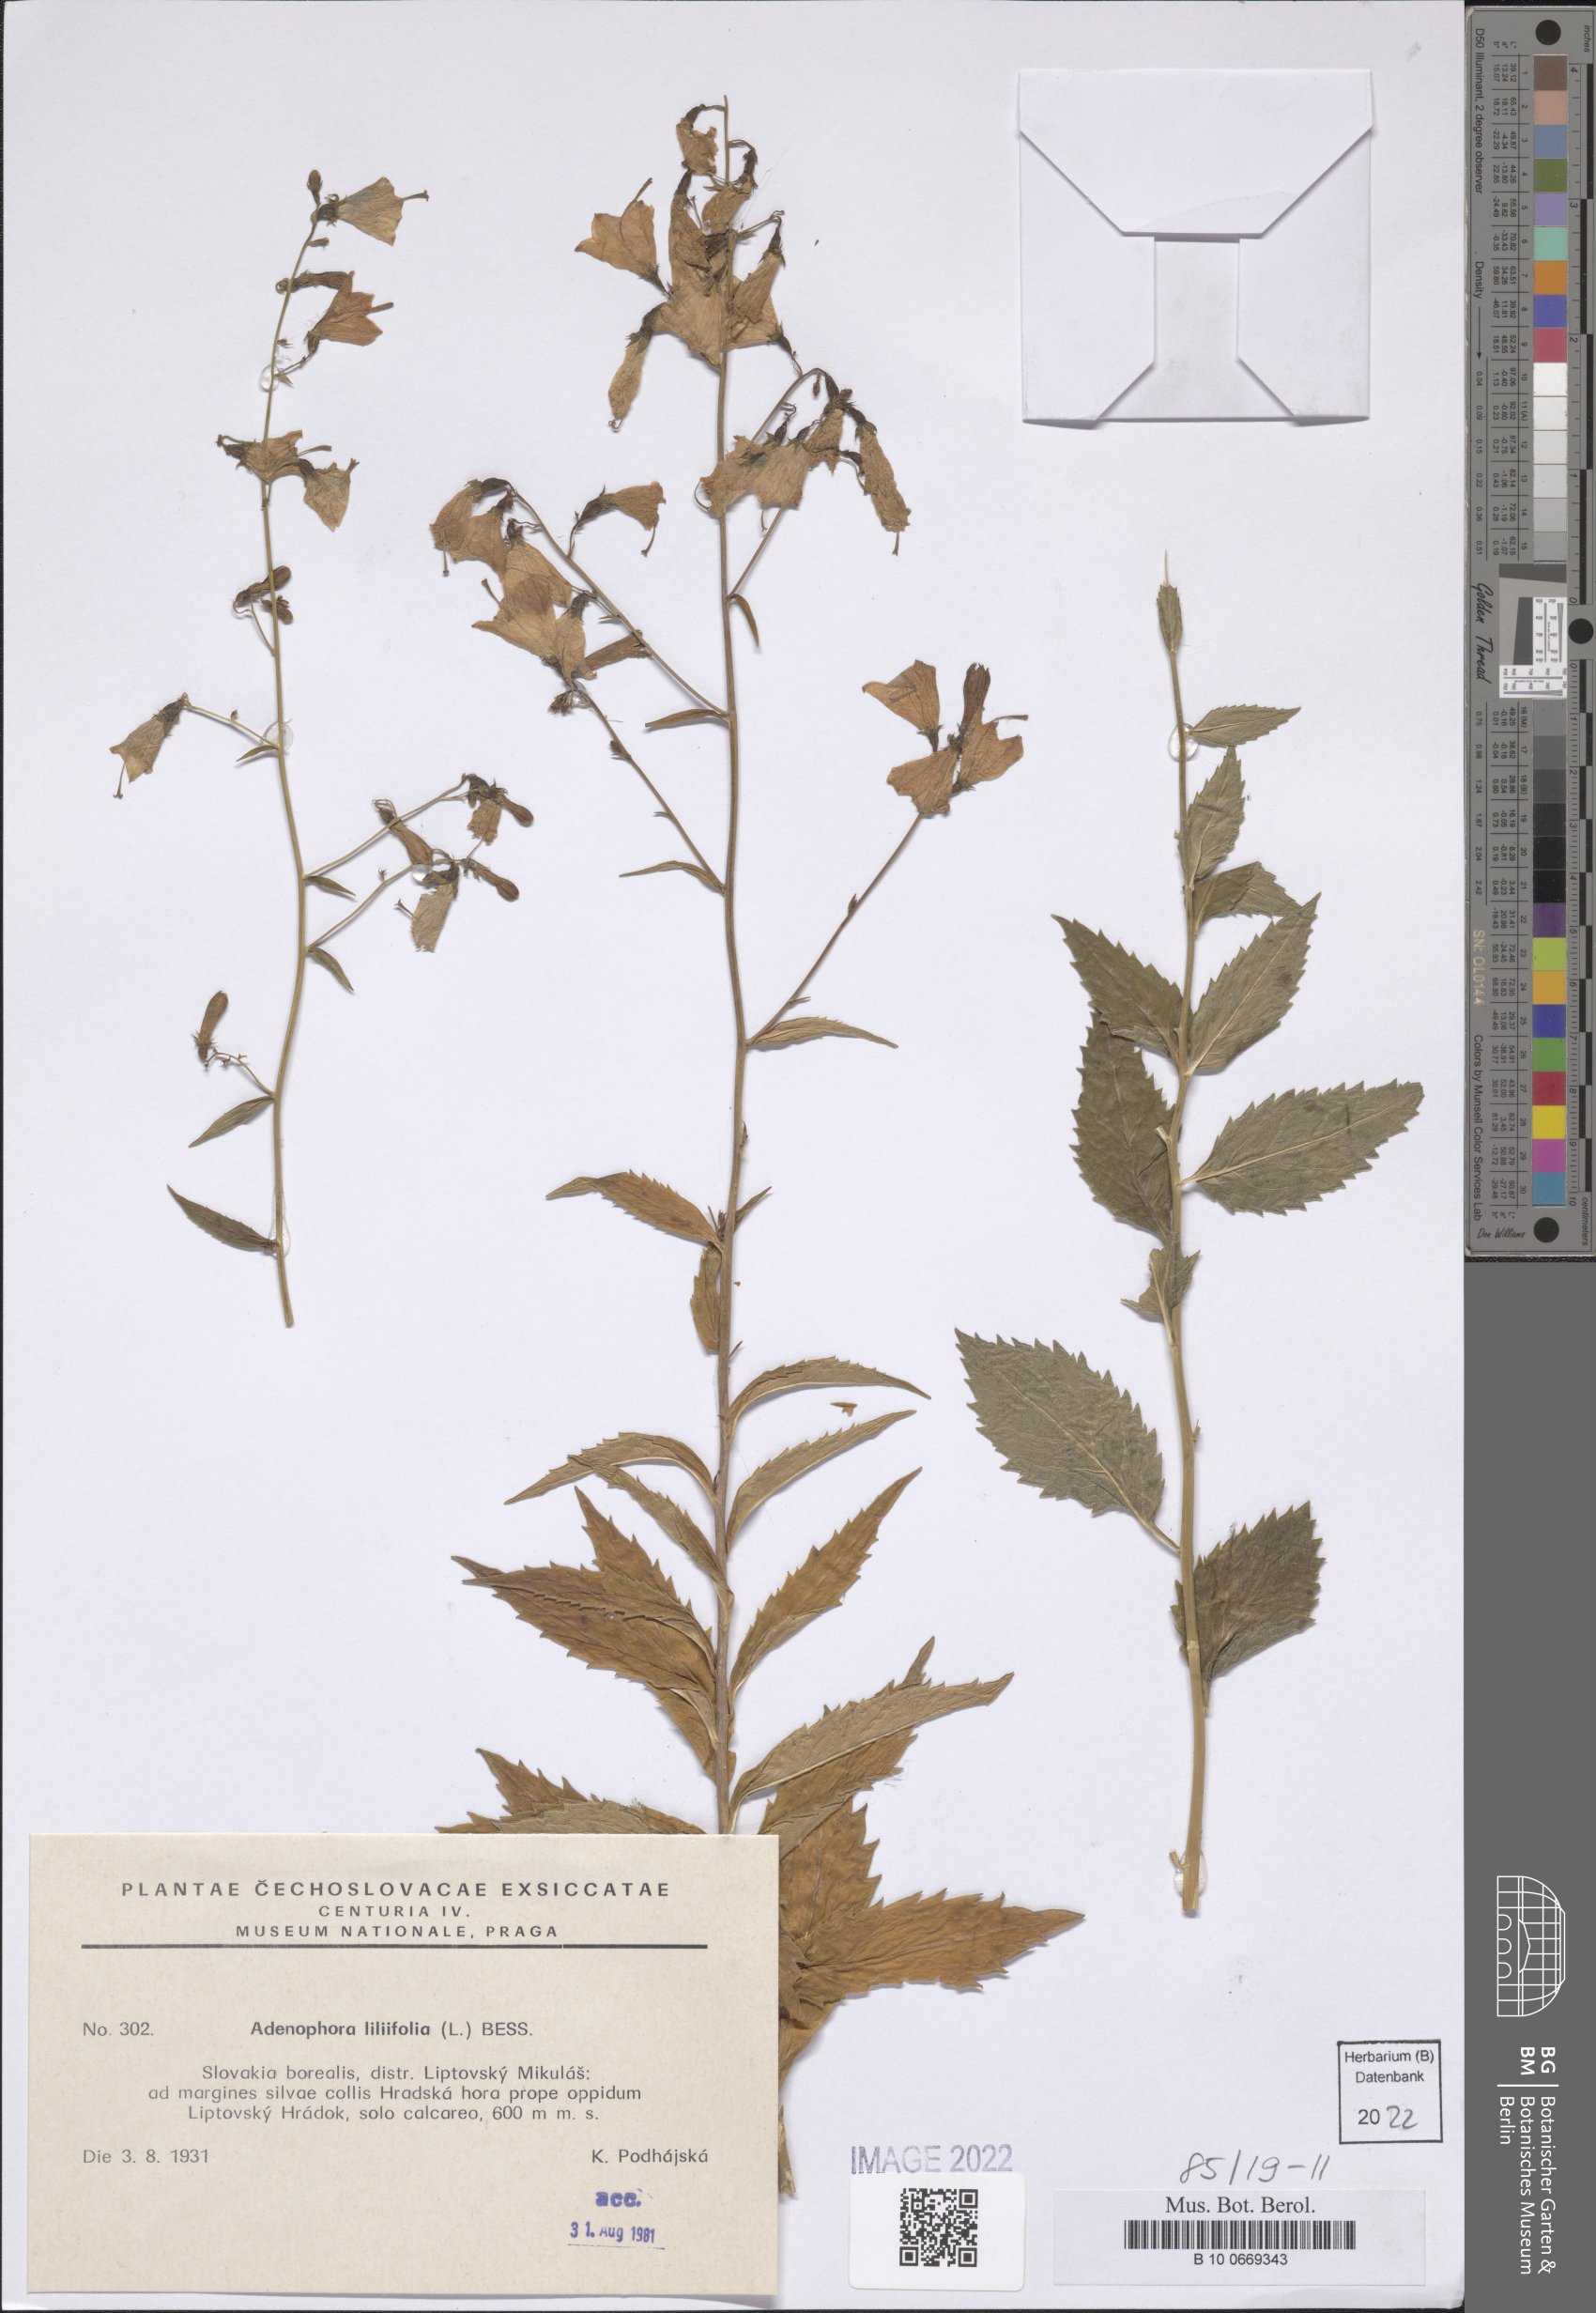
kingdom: Plantae
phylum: Tracheophyta
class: Magnoliopsida
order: Asterales
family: Campanulaceae
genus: Adenophora
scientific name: Adenophora liliifolia
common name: Lilyleaf ladybells
